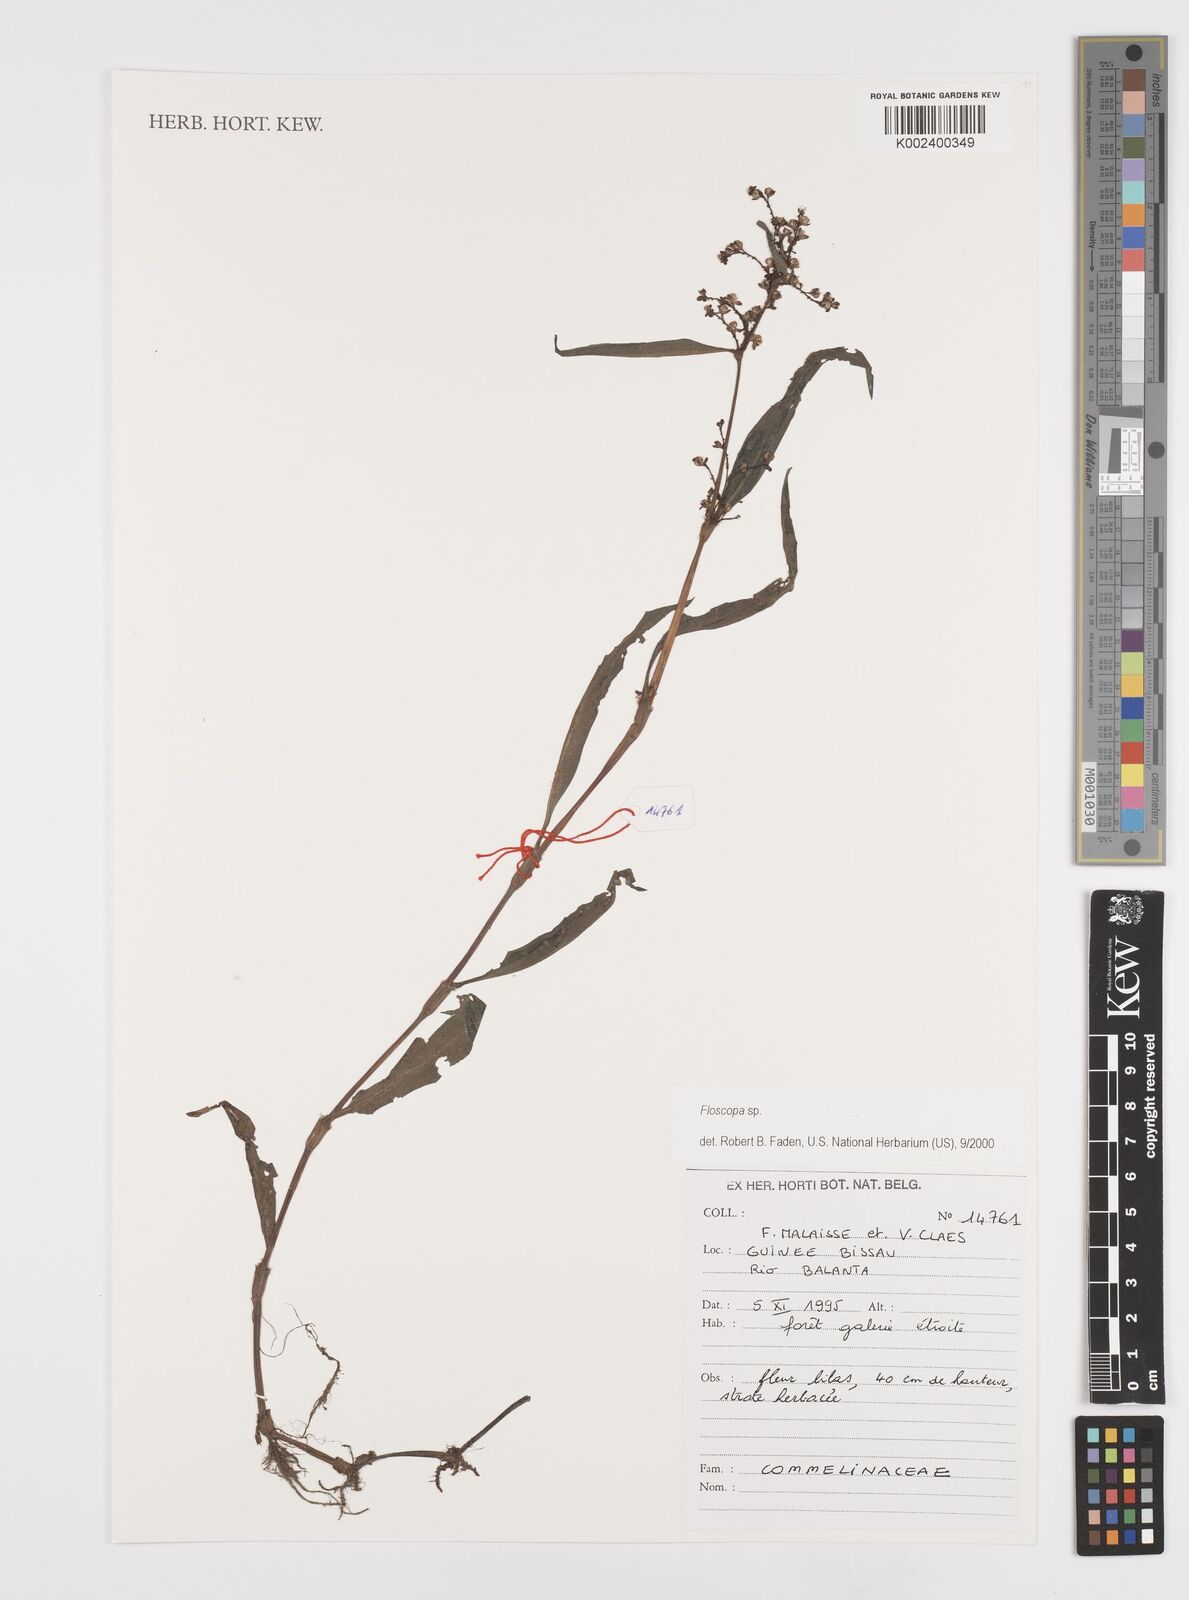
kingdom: Plantae
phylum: Tracheophyta
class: Liliopsida
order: Commelinales
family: Commelinaceae
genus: Floscopa
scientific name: Floscopa
